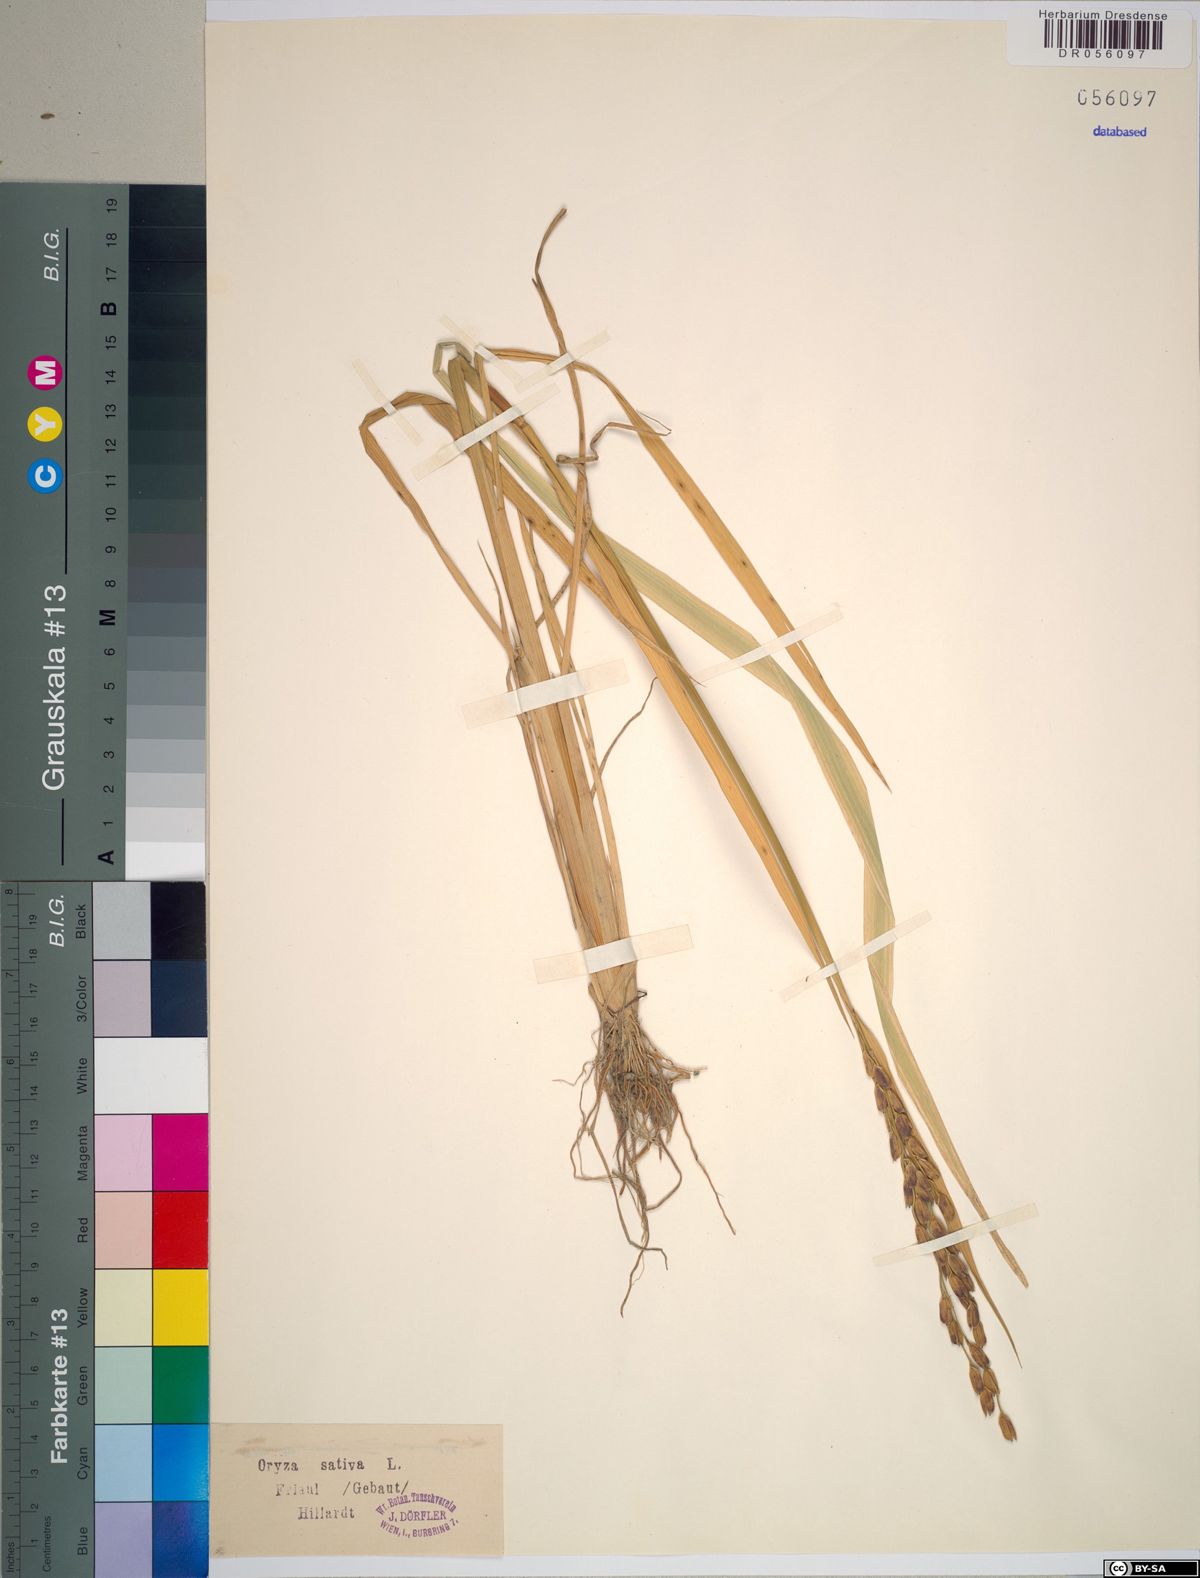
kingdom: Plantae
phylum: Tracheophyta
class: Liliopsida
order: Poales
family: Poaceae
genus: Oryza
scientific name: Oryza sativa
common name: Rice
